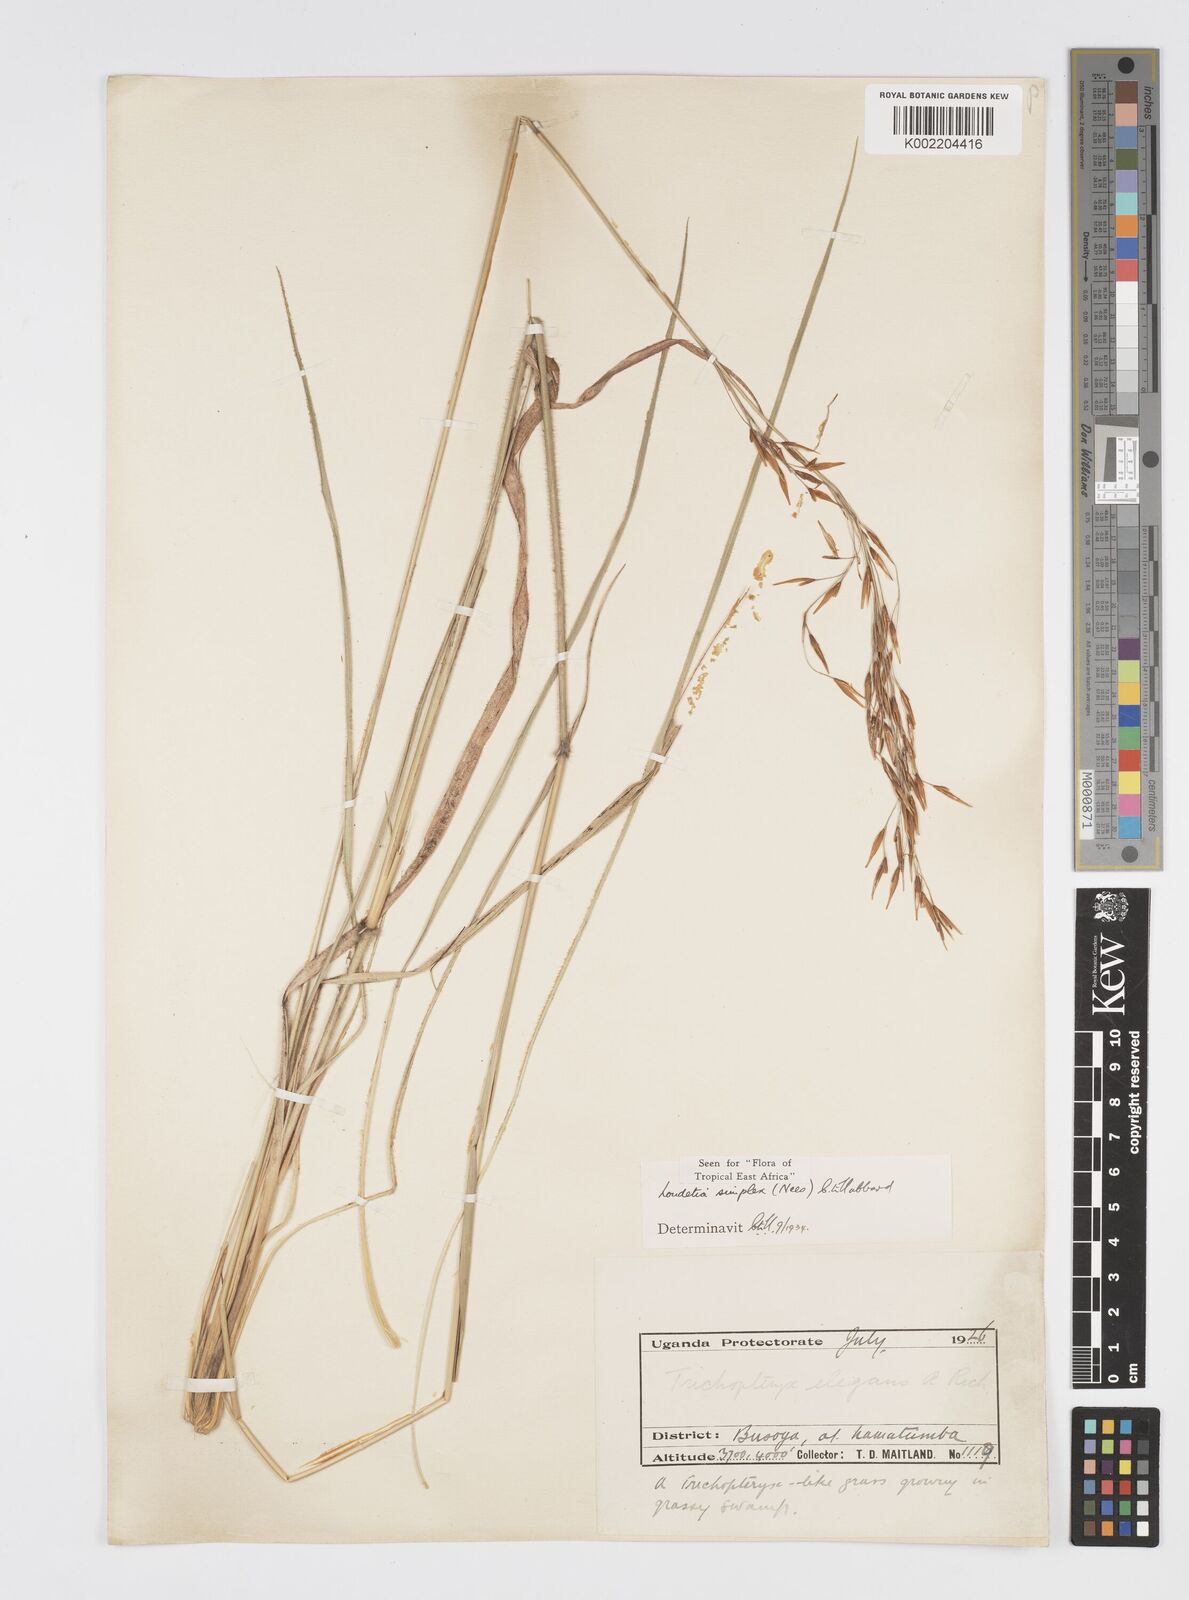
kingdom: Plantae
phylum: Tracheophyta
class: Liliopsida
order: Poales
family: Poaceae
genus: Loudetia
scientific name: Loudetia simplex
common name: Common russet grass
